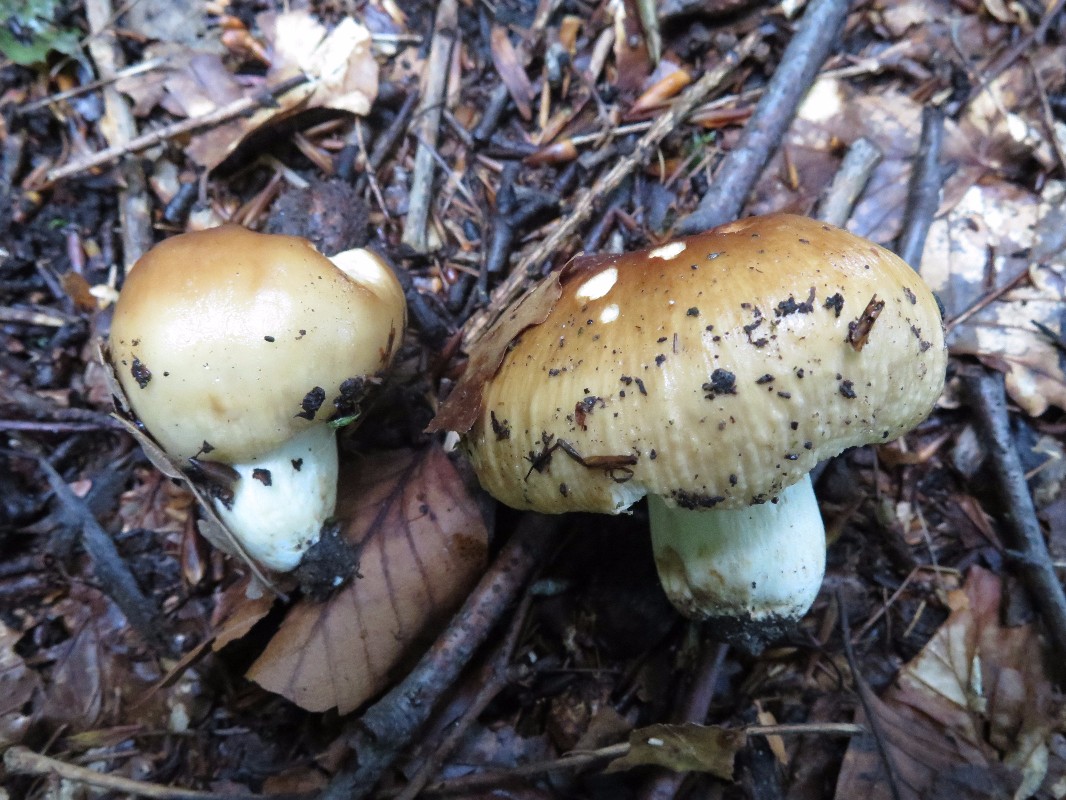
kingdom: Fungi
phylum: Basidiomycota
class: Agaricomycetes
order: Russulales
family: Russulaceae
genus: Russula
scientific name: Russula foetens
